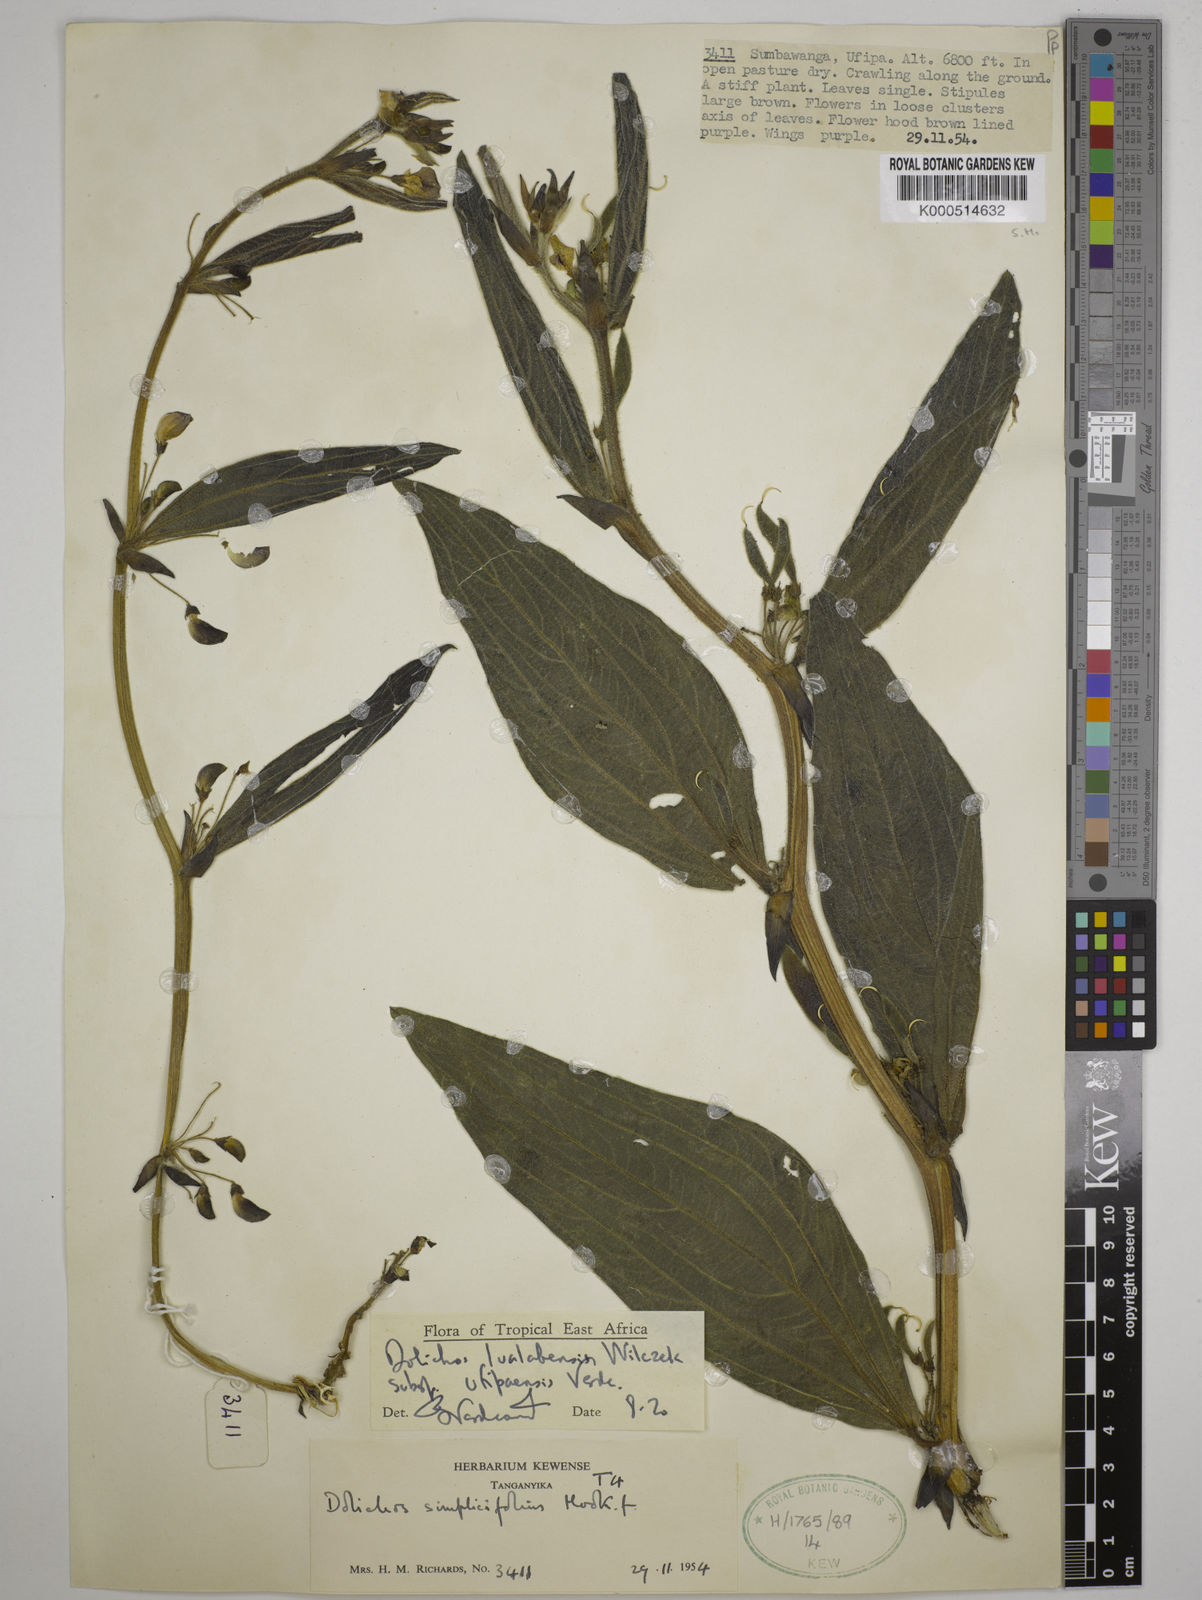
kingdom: Plantae
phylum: Tracheophyta
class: Magnoliopsida
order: Fabales
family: Fabaceae
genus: Dolichos
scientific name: Dolichos
